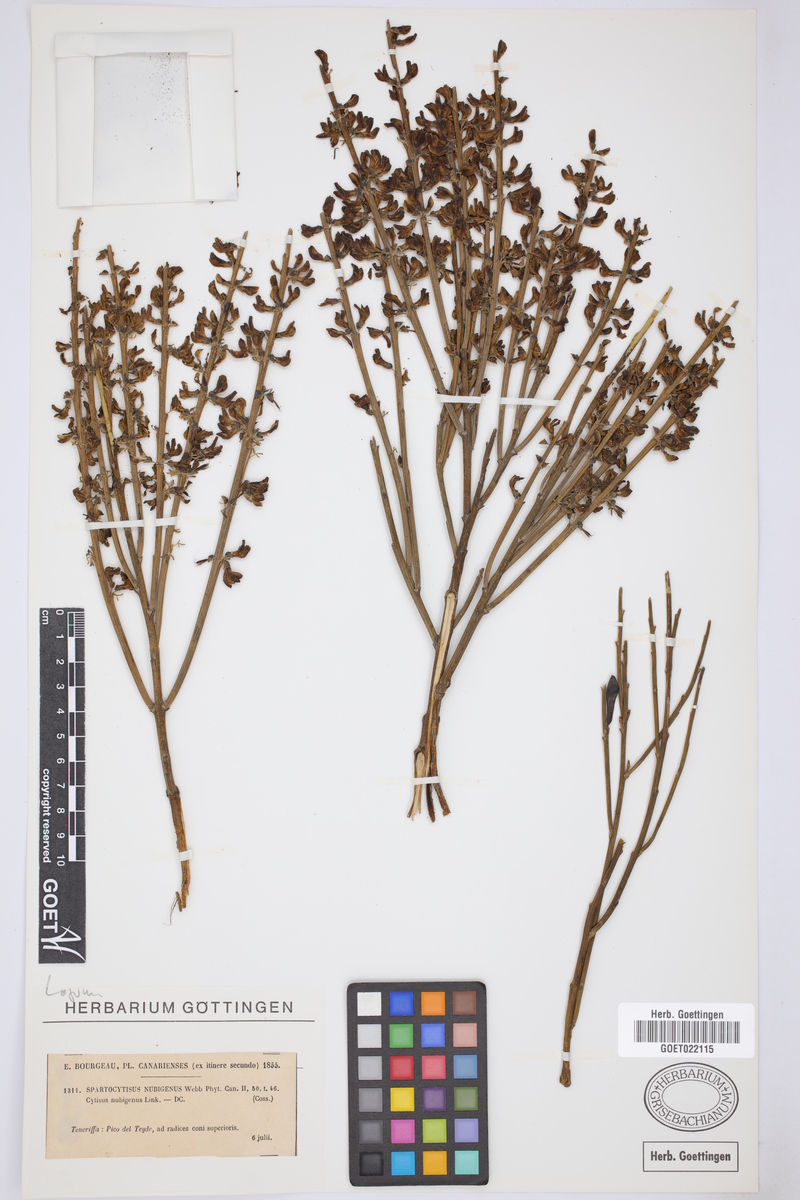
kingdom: Plantae
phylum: Tracheophyta
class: Magnoliopsida
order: Fabales
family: Fabaceae
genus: Cytisus
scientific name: Cytisus supranubius
